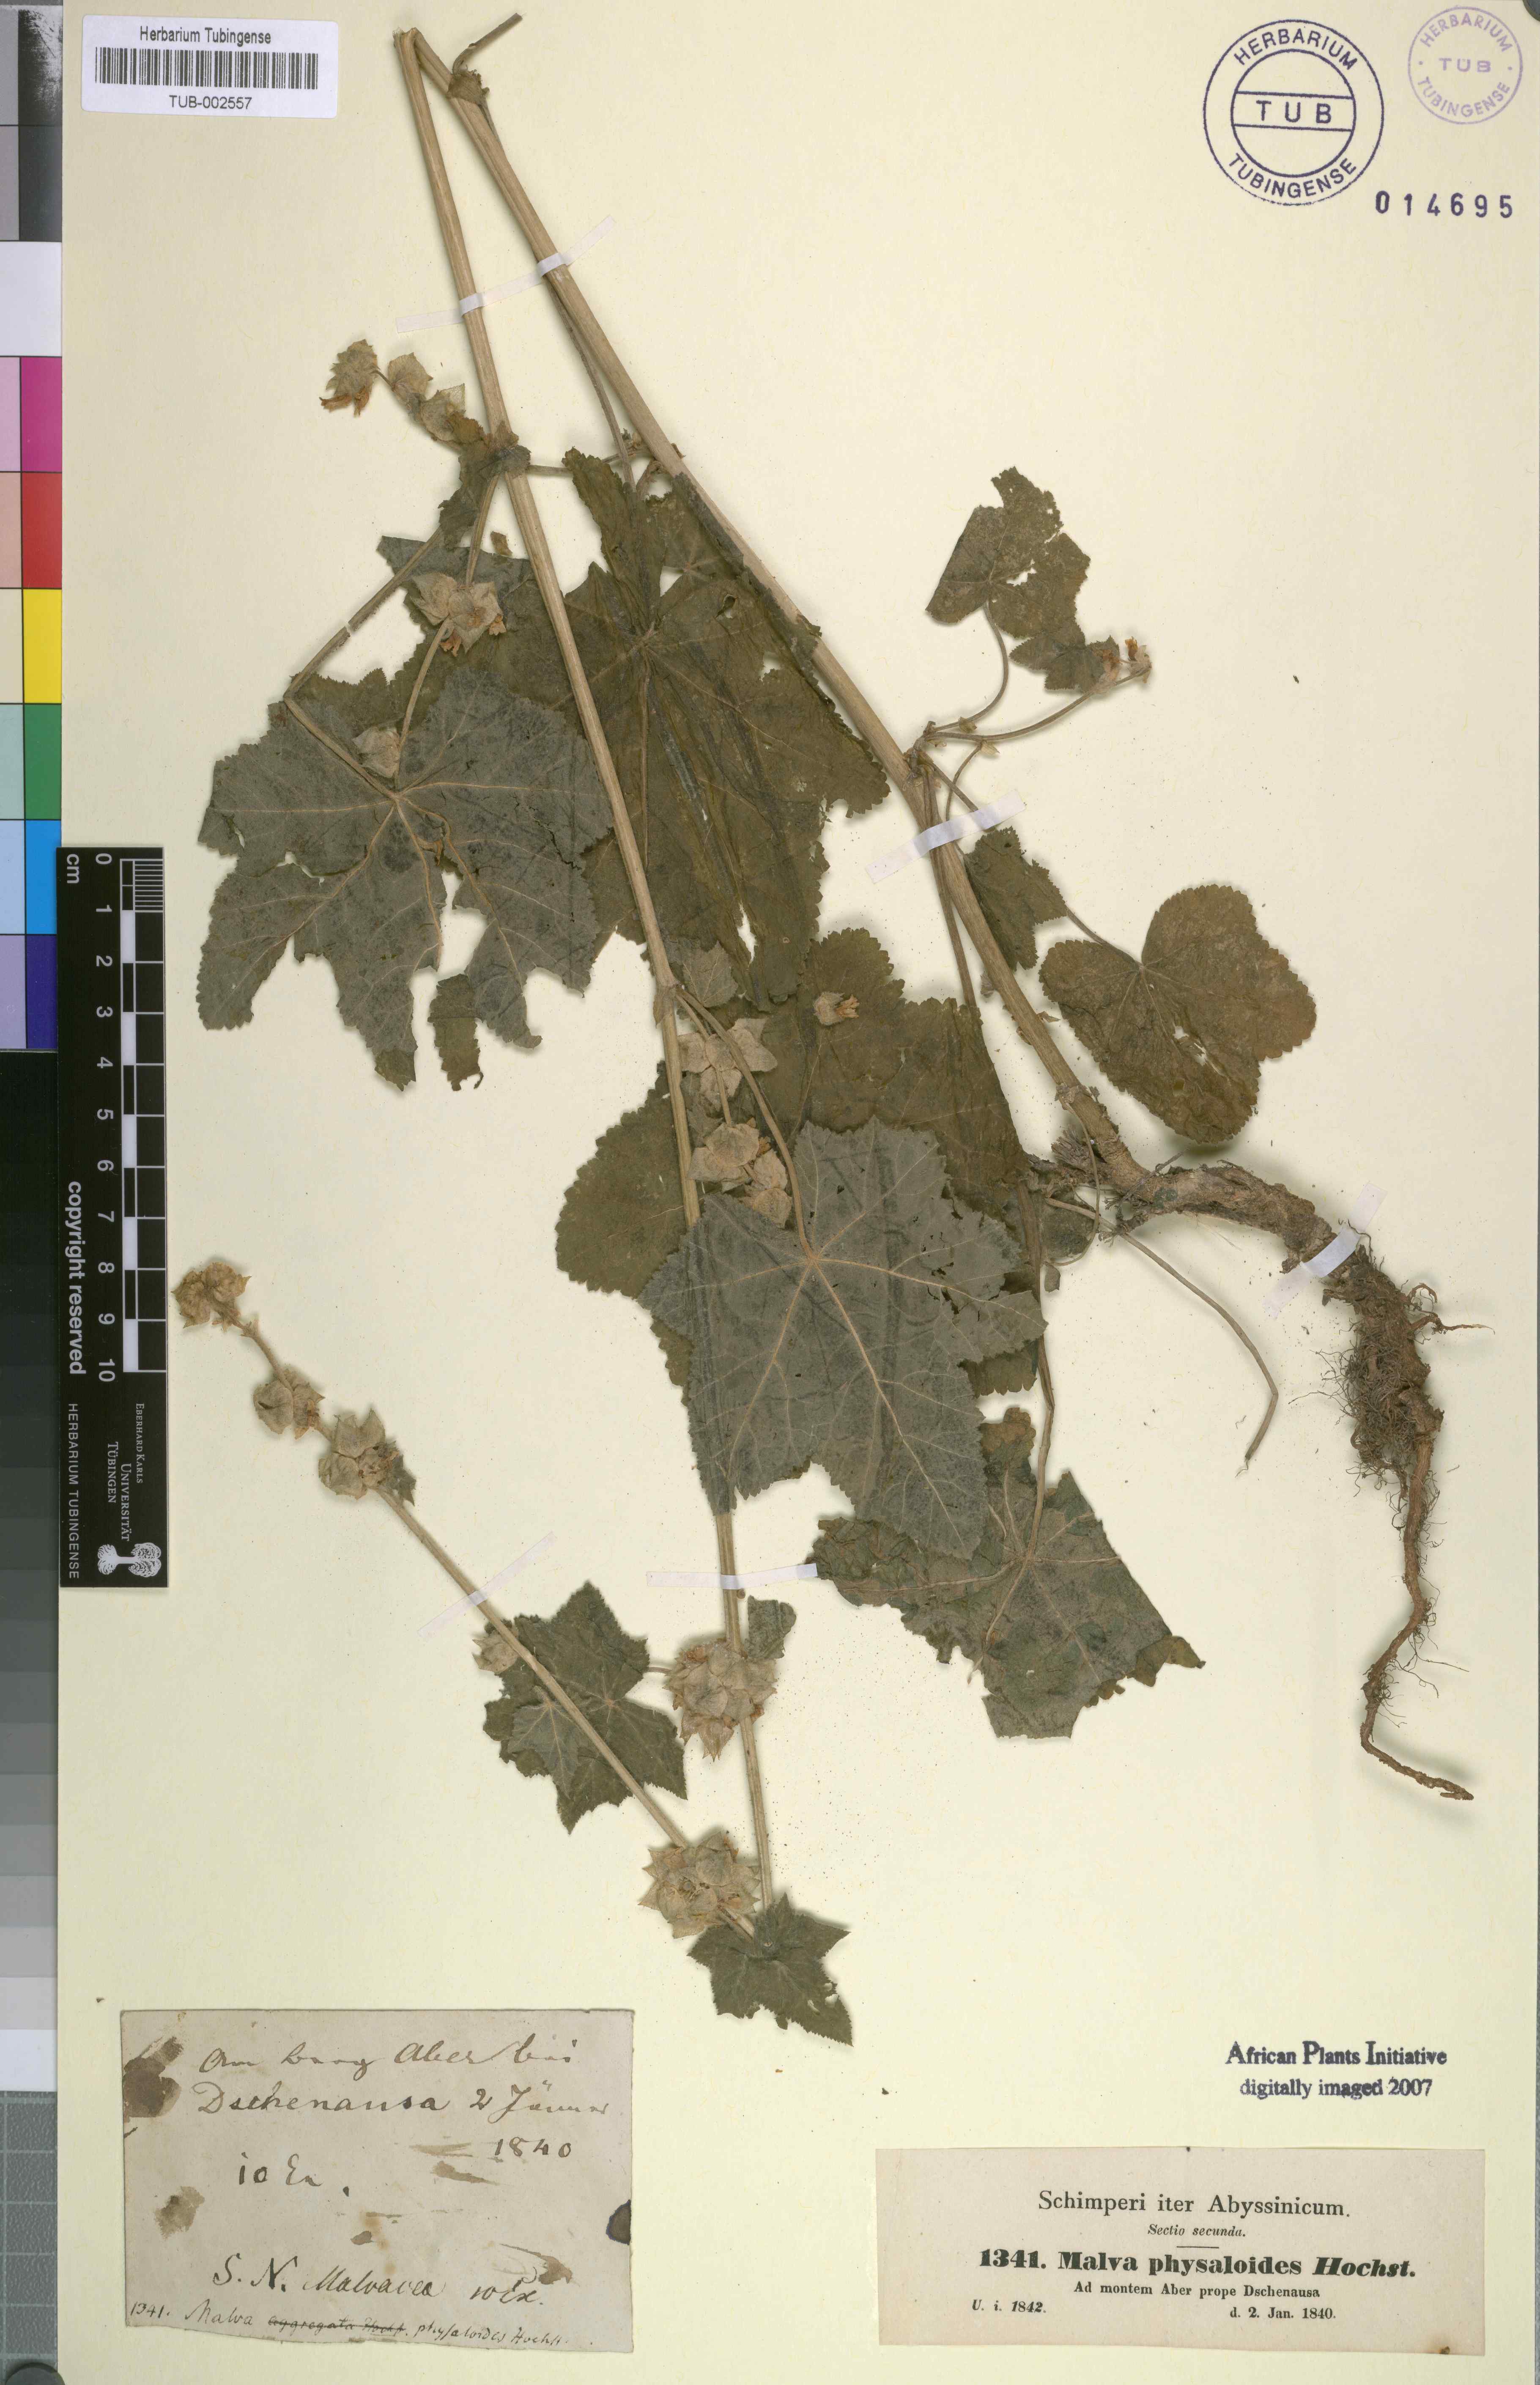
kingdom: Plantae
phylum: Tracheophyta
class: Magnoliopsida
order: Malvales
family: Malvaceae
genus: Malva
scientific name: Malva
